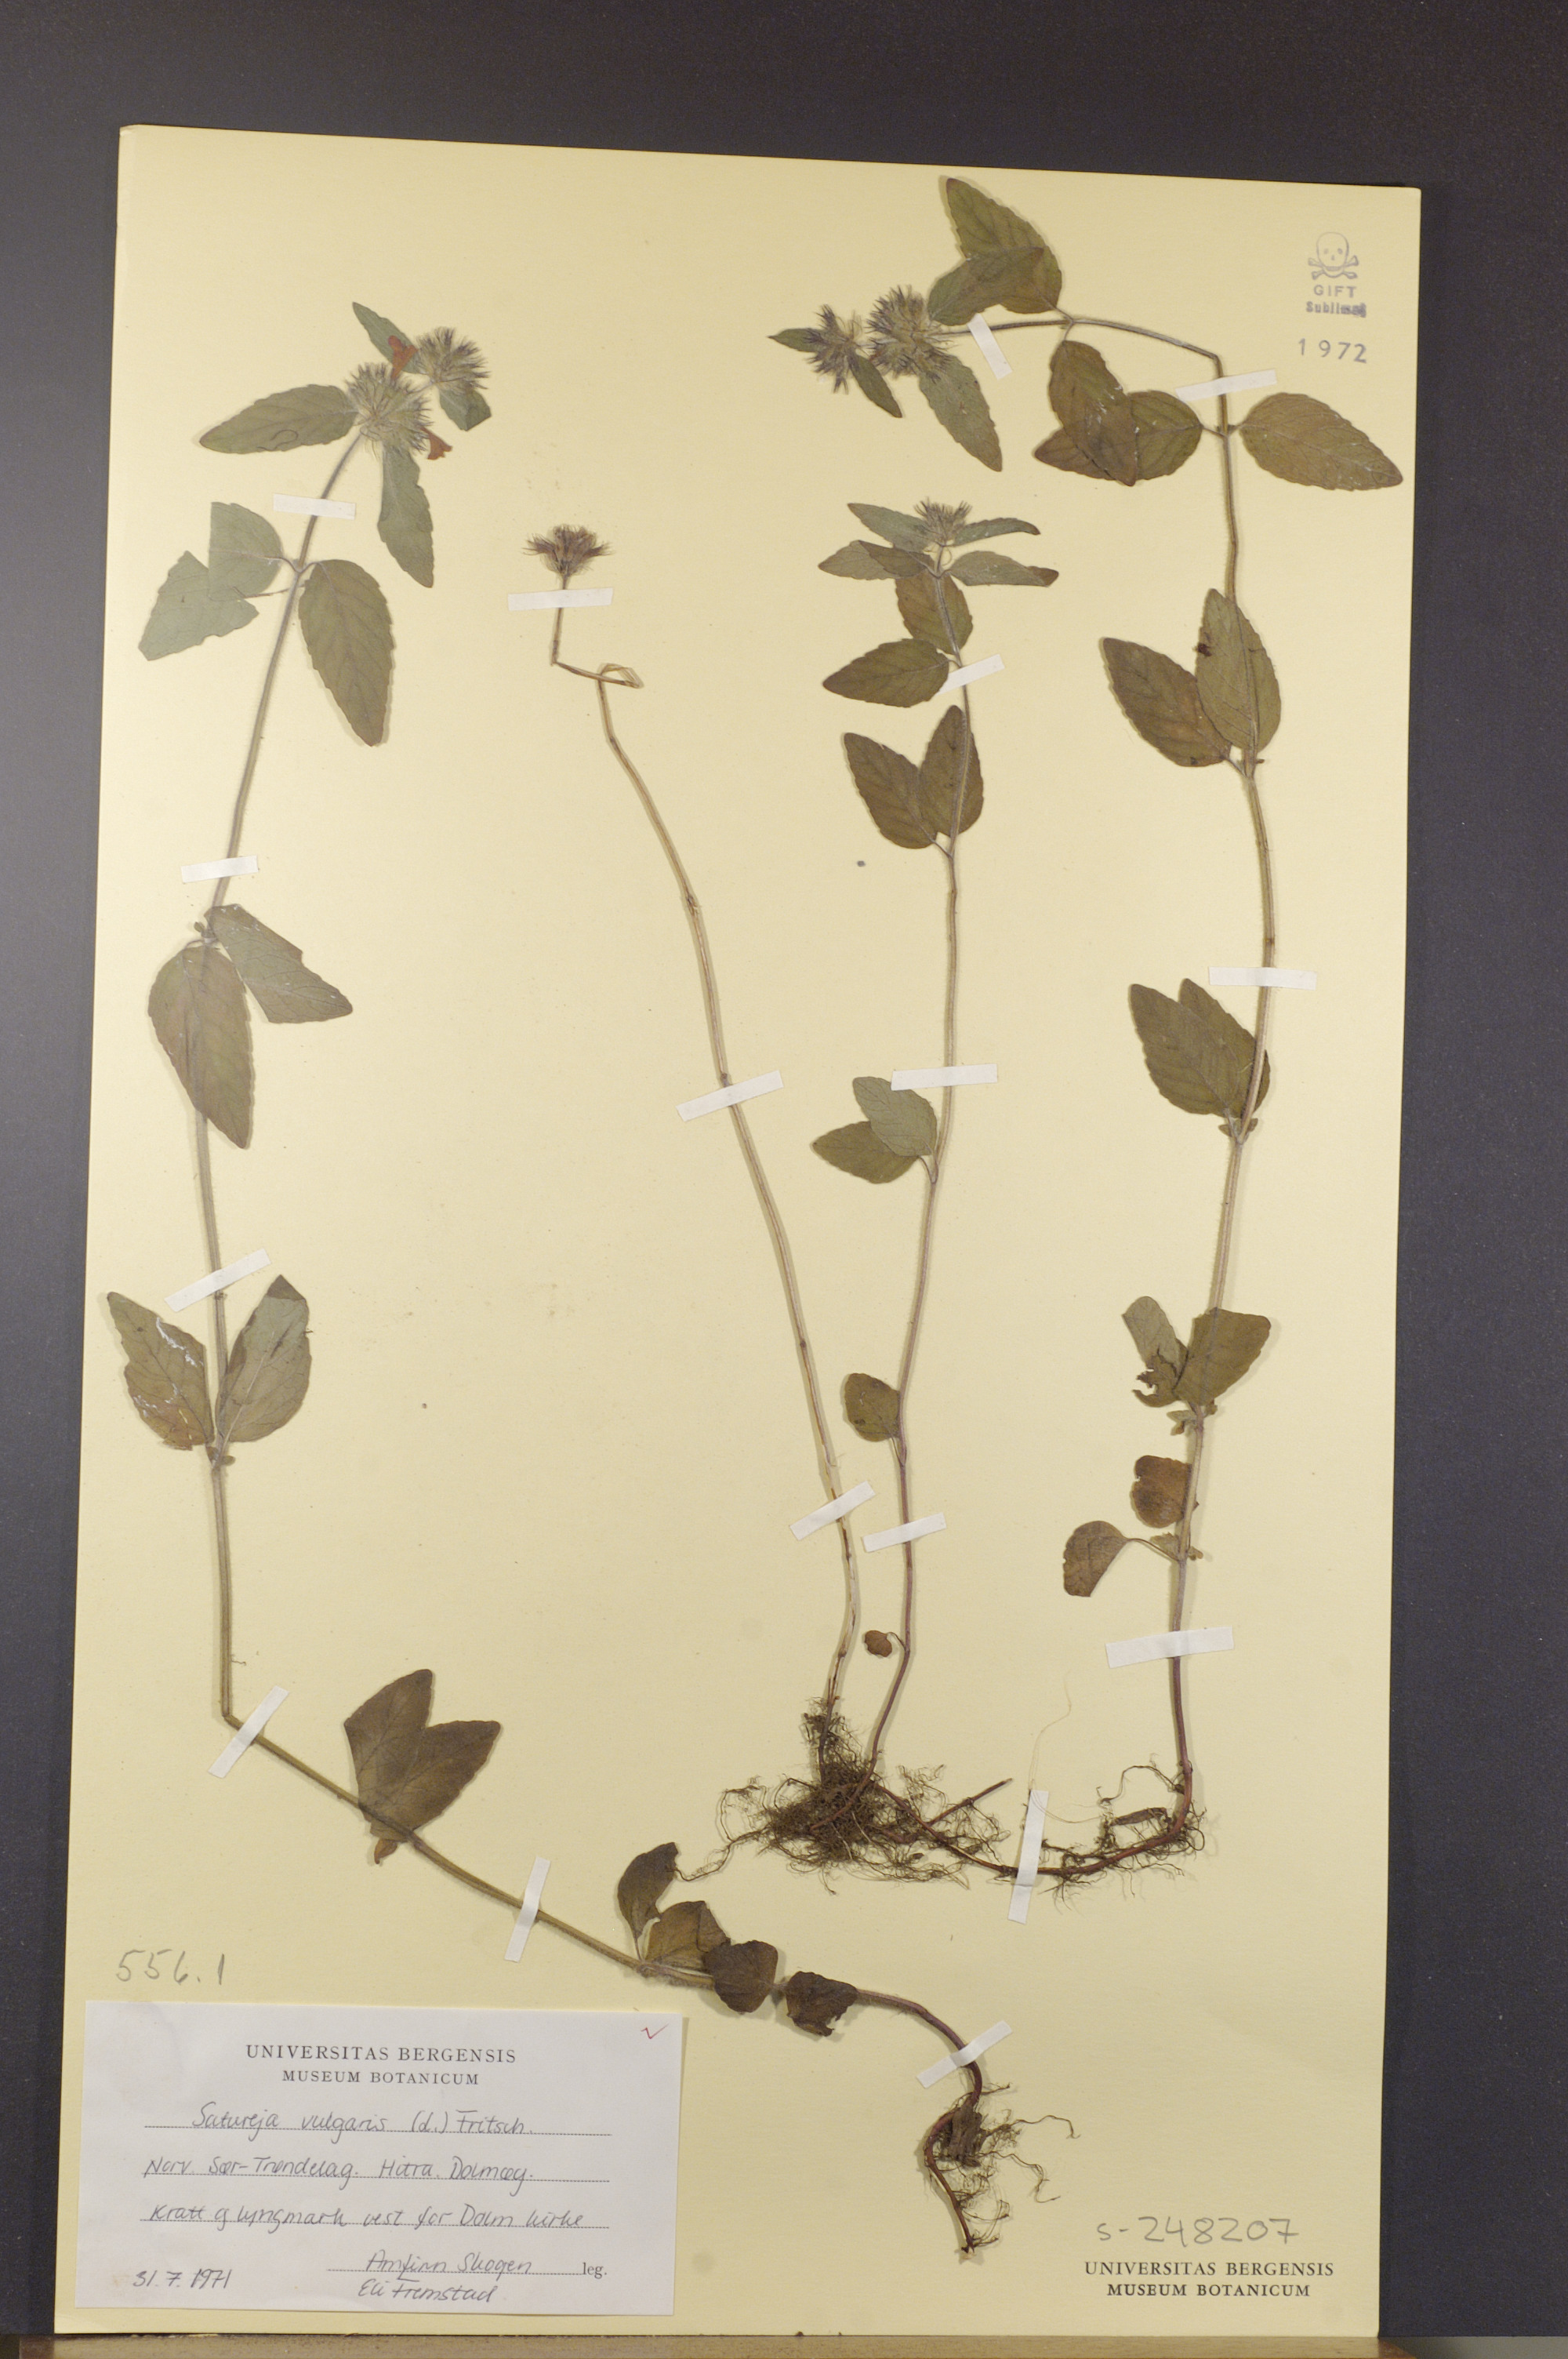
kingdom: Plantae
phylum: Tracheophyta
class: Magnoliopsida
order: Lamiales
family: Lamiaceae
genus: Clinopodium
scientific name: Clinopodium vulgare
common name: Wild basil
